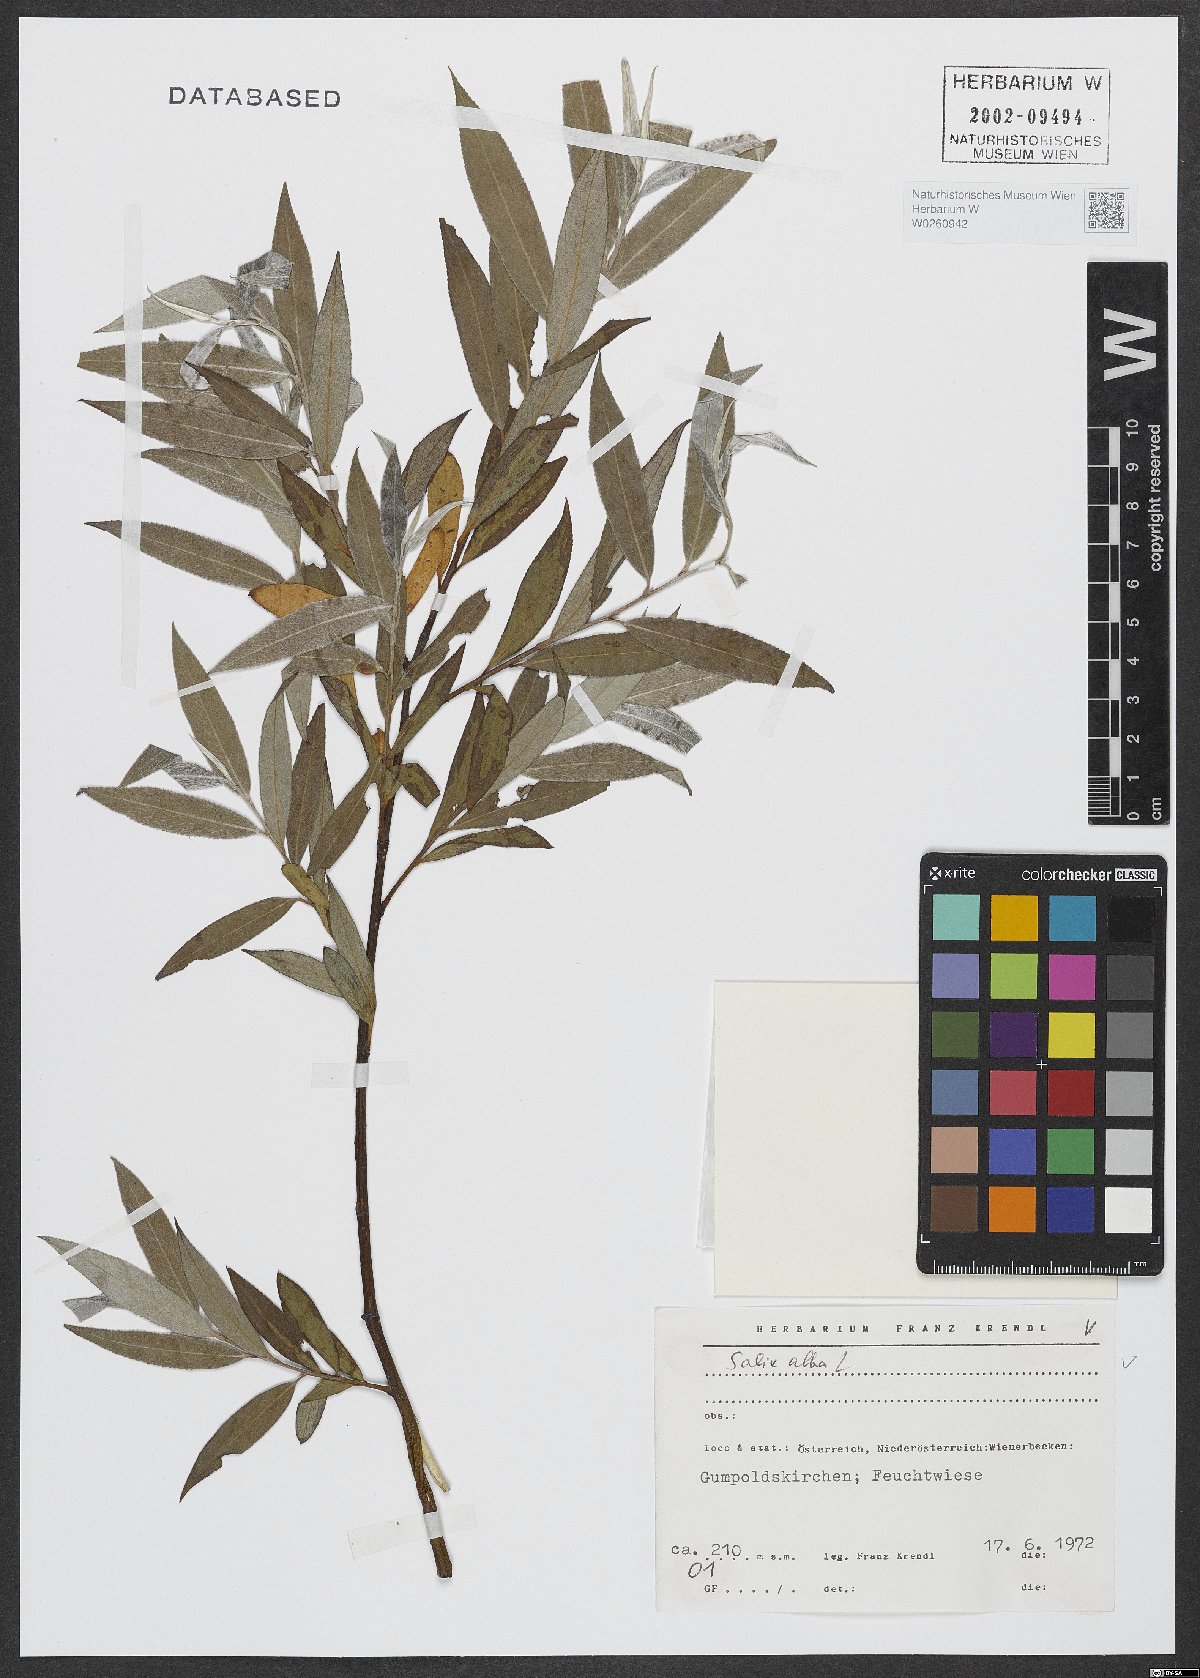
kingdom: Plantae
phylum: Tracheophyta
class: Magnoliopsida
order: Malpighiales
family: Salicaceae
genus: Salix
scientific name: Salix alba
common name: White willow
